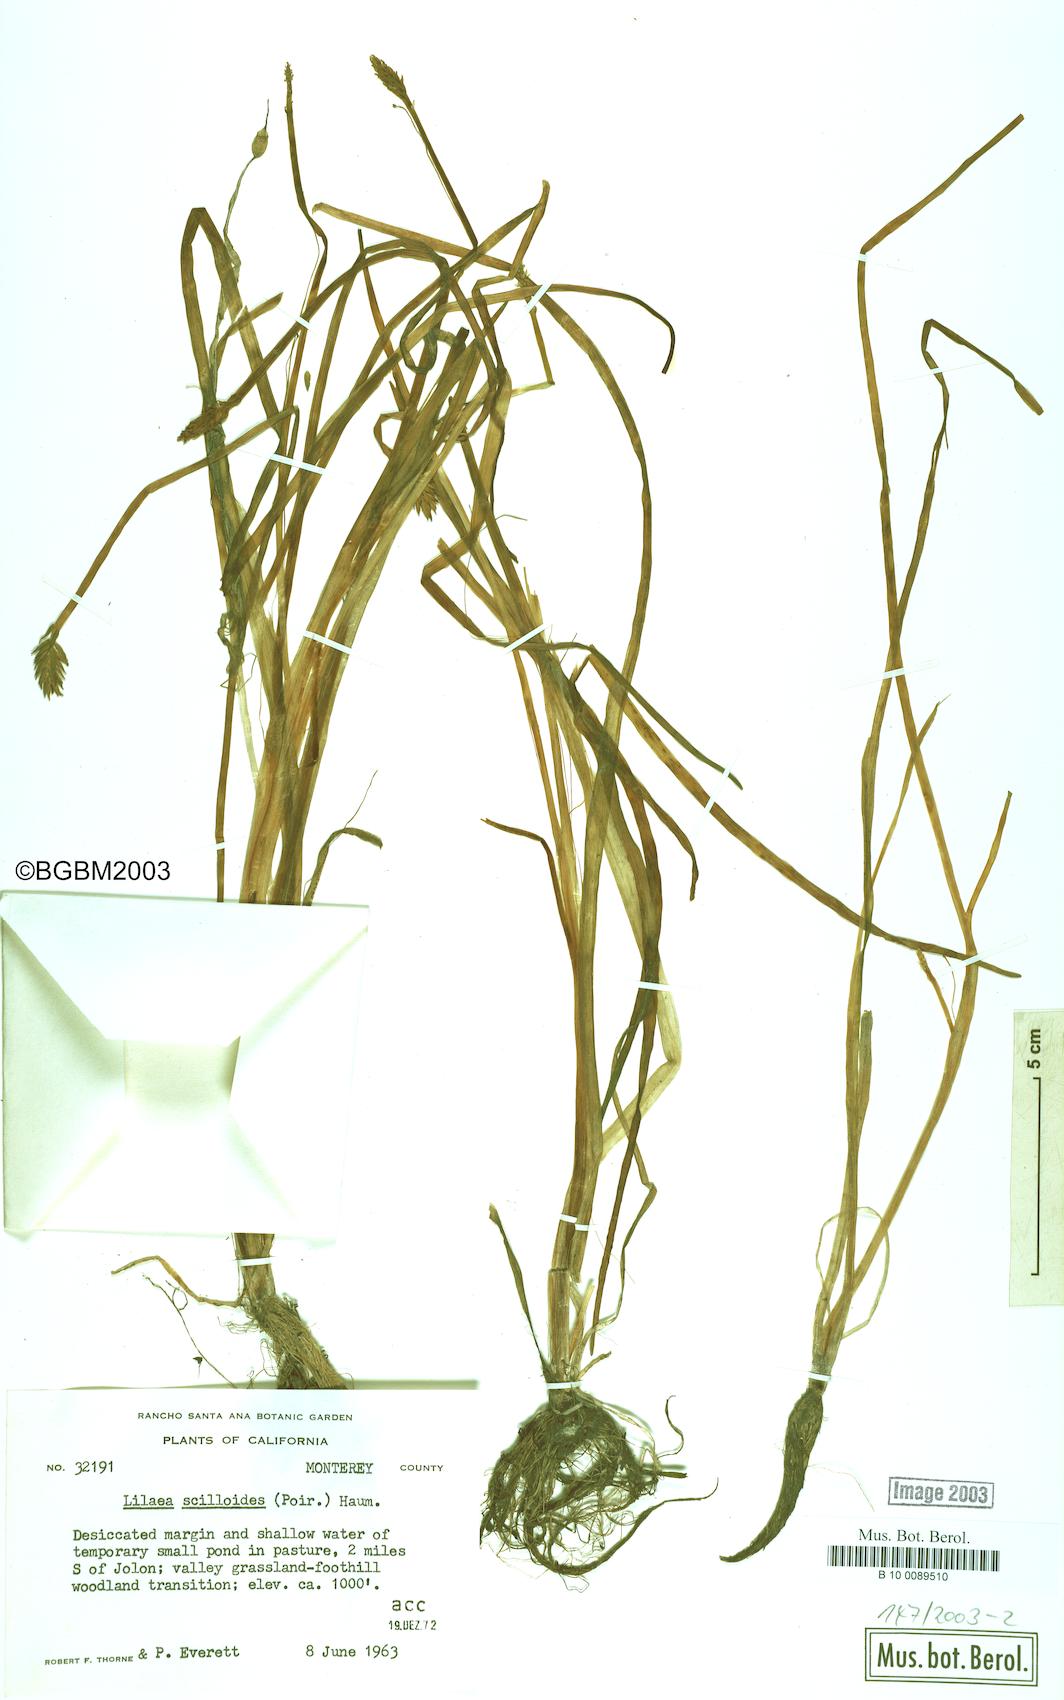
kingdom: Plantae
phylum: Tracheophyta
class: Liliopsida
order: Alismatales
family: Juncaginaceae
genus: Triglochin
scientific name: Triglochin scilloides
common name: Awl-leaved lilaea
